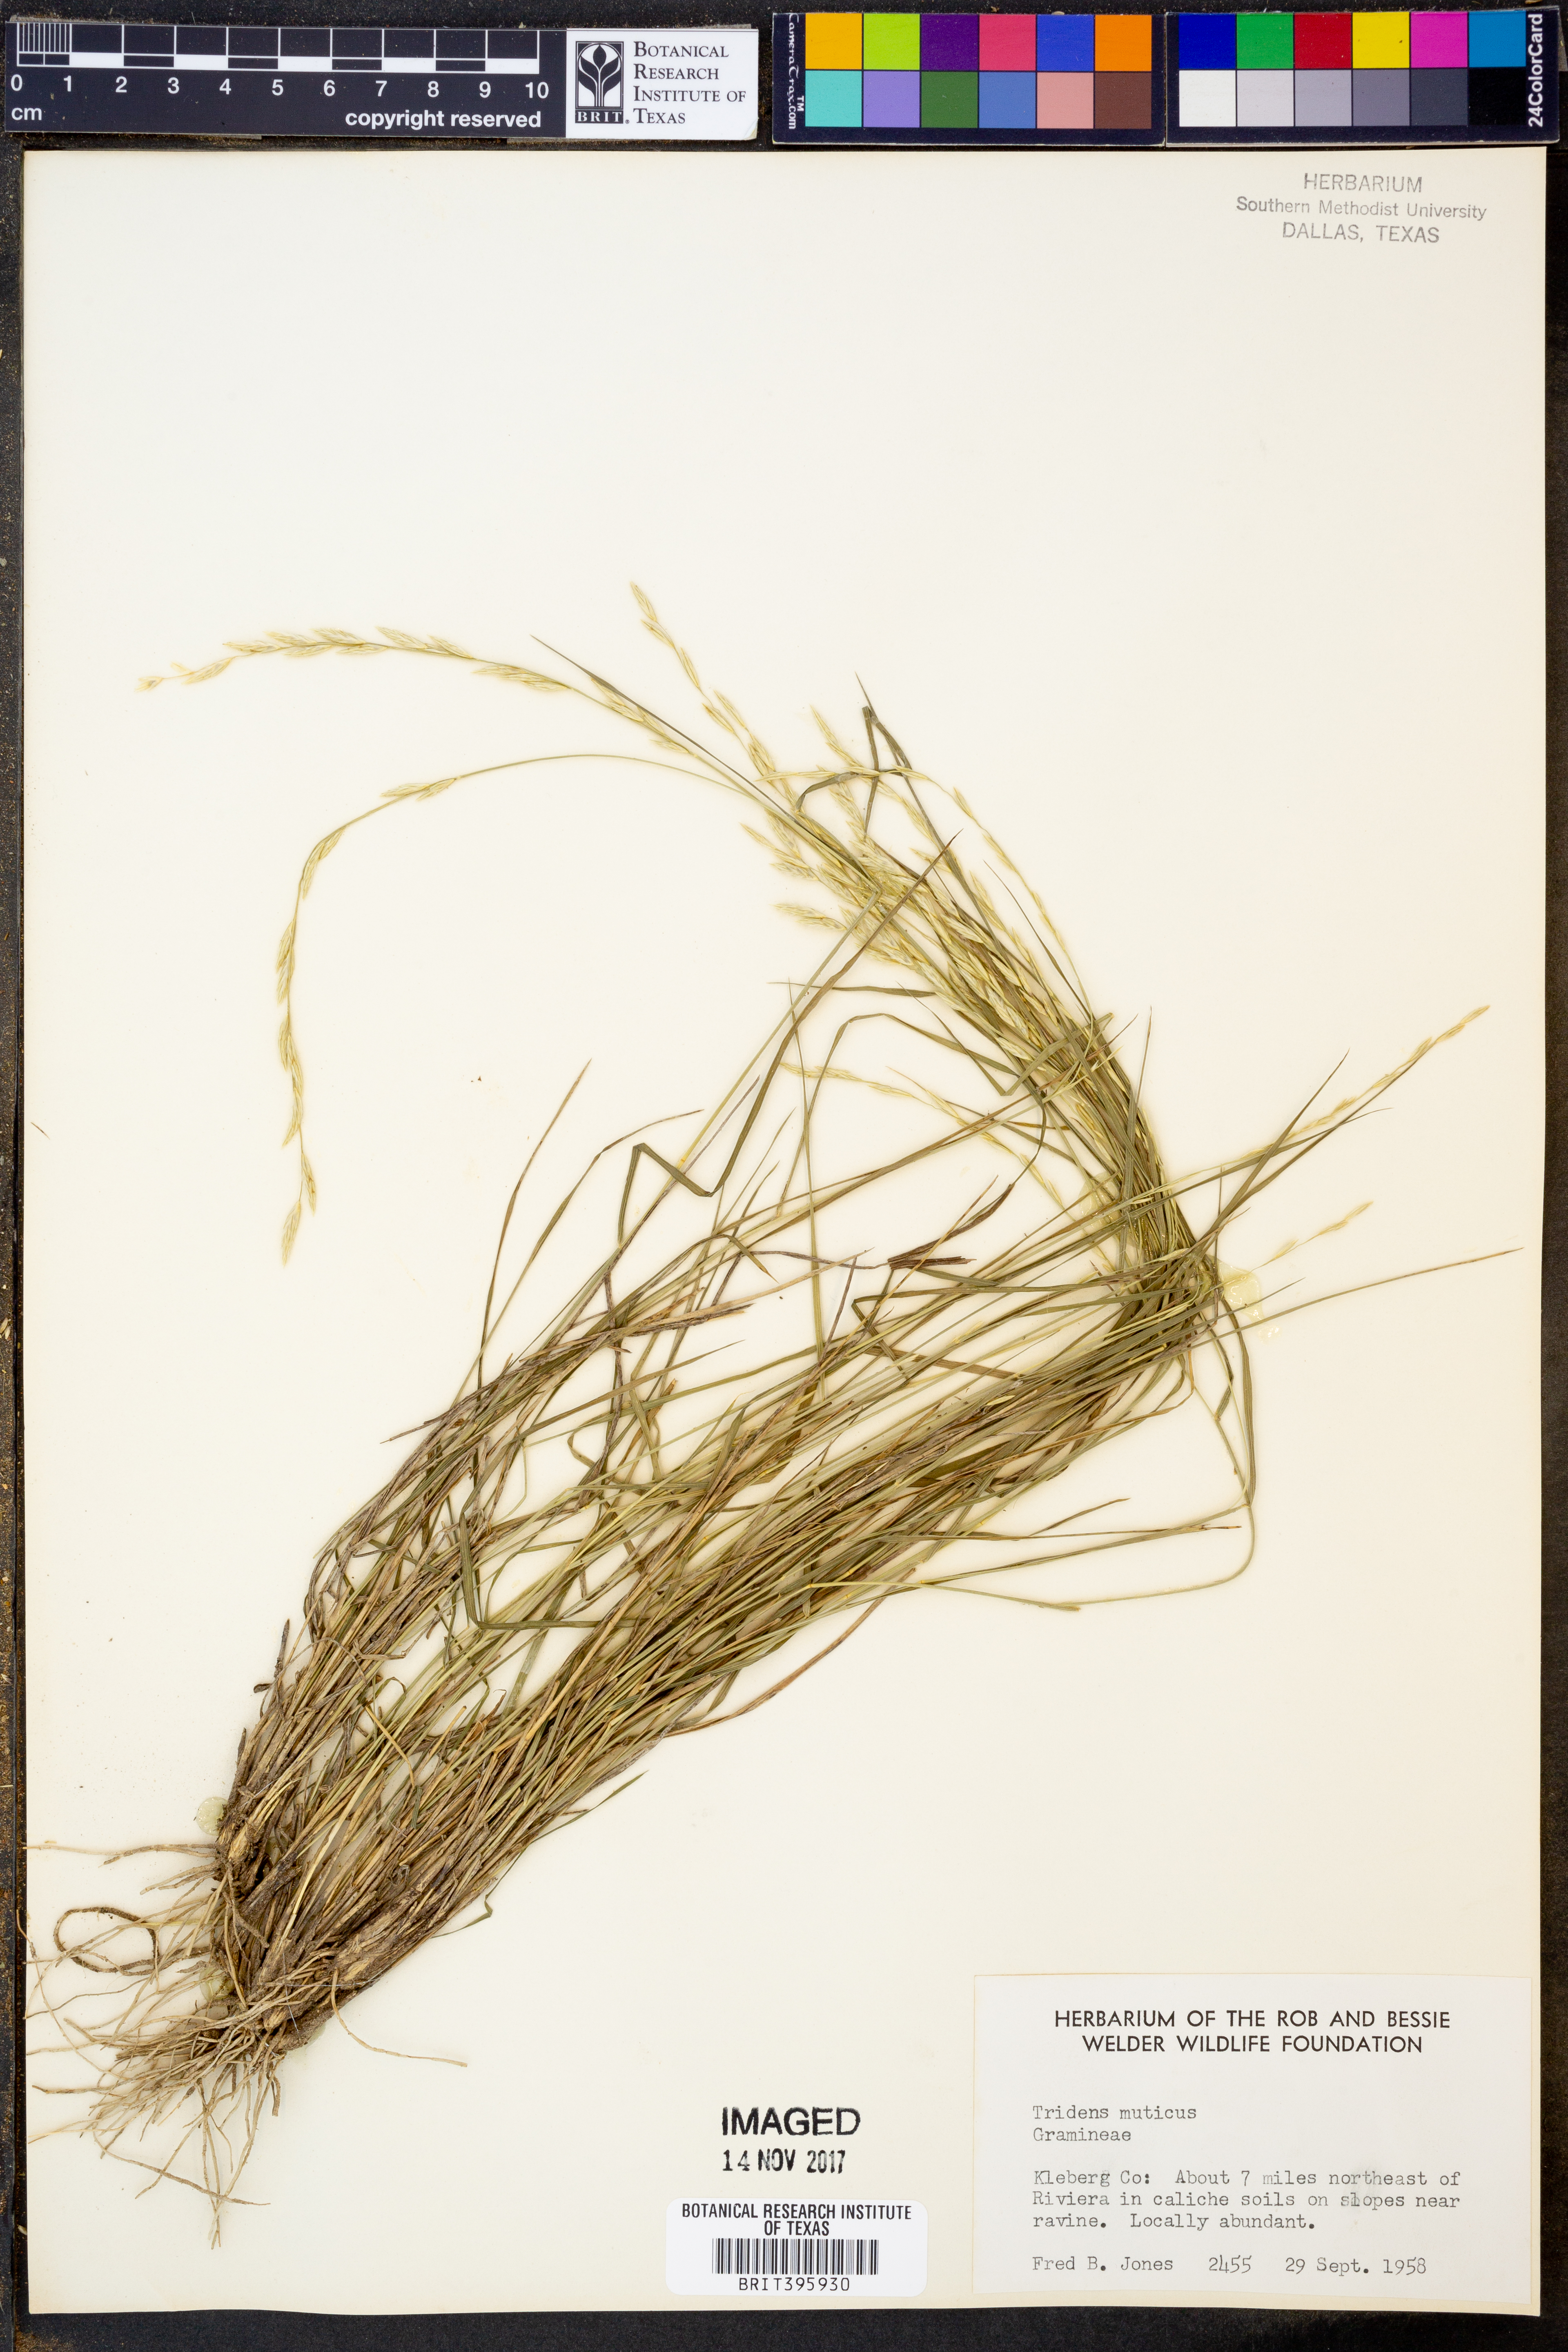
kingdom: Plantae
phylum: Tracheophyta
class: Liliopsida
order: Poales
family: Poaceae
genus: Tridentopsis
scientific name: Tridentopsis mutica
